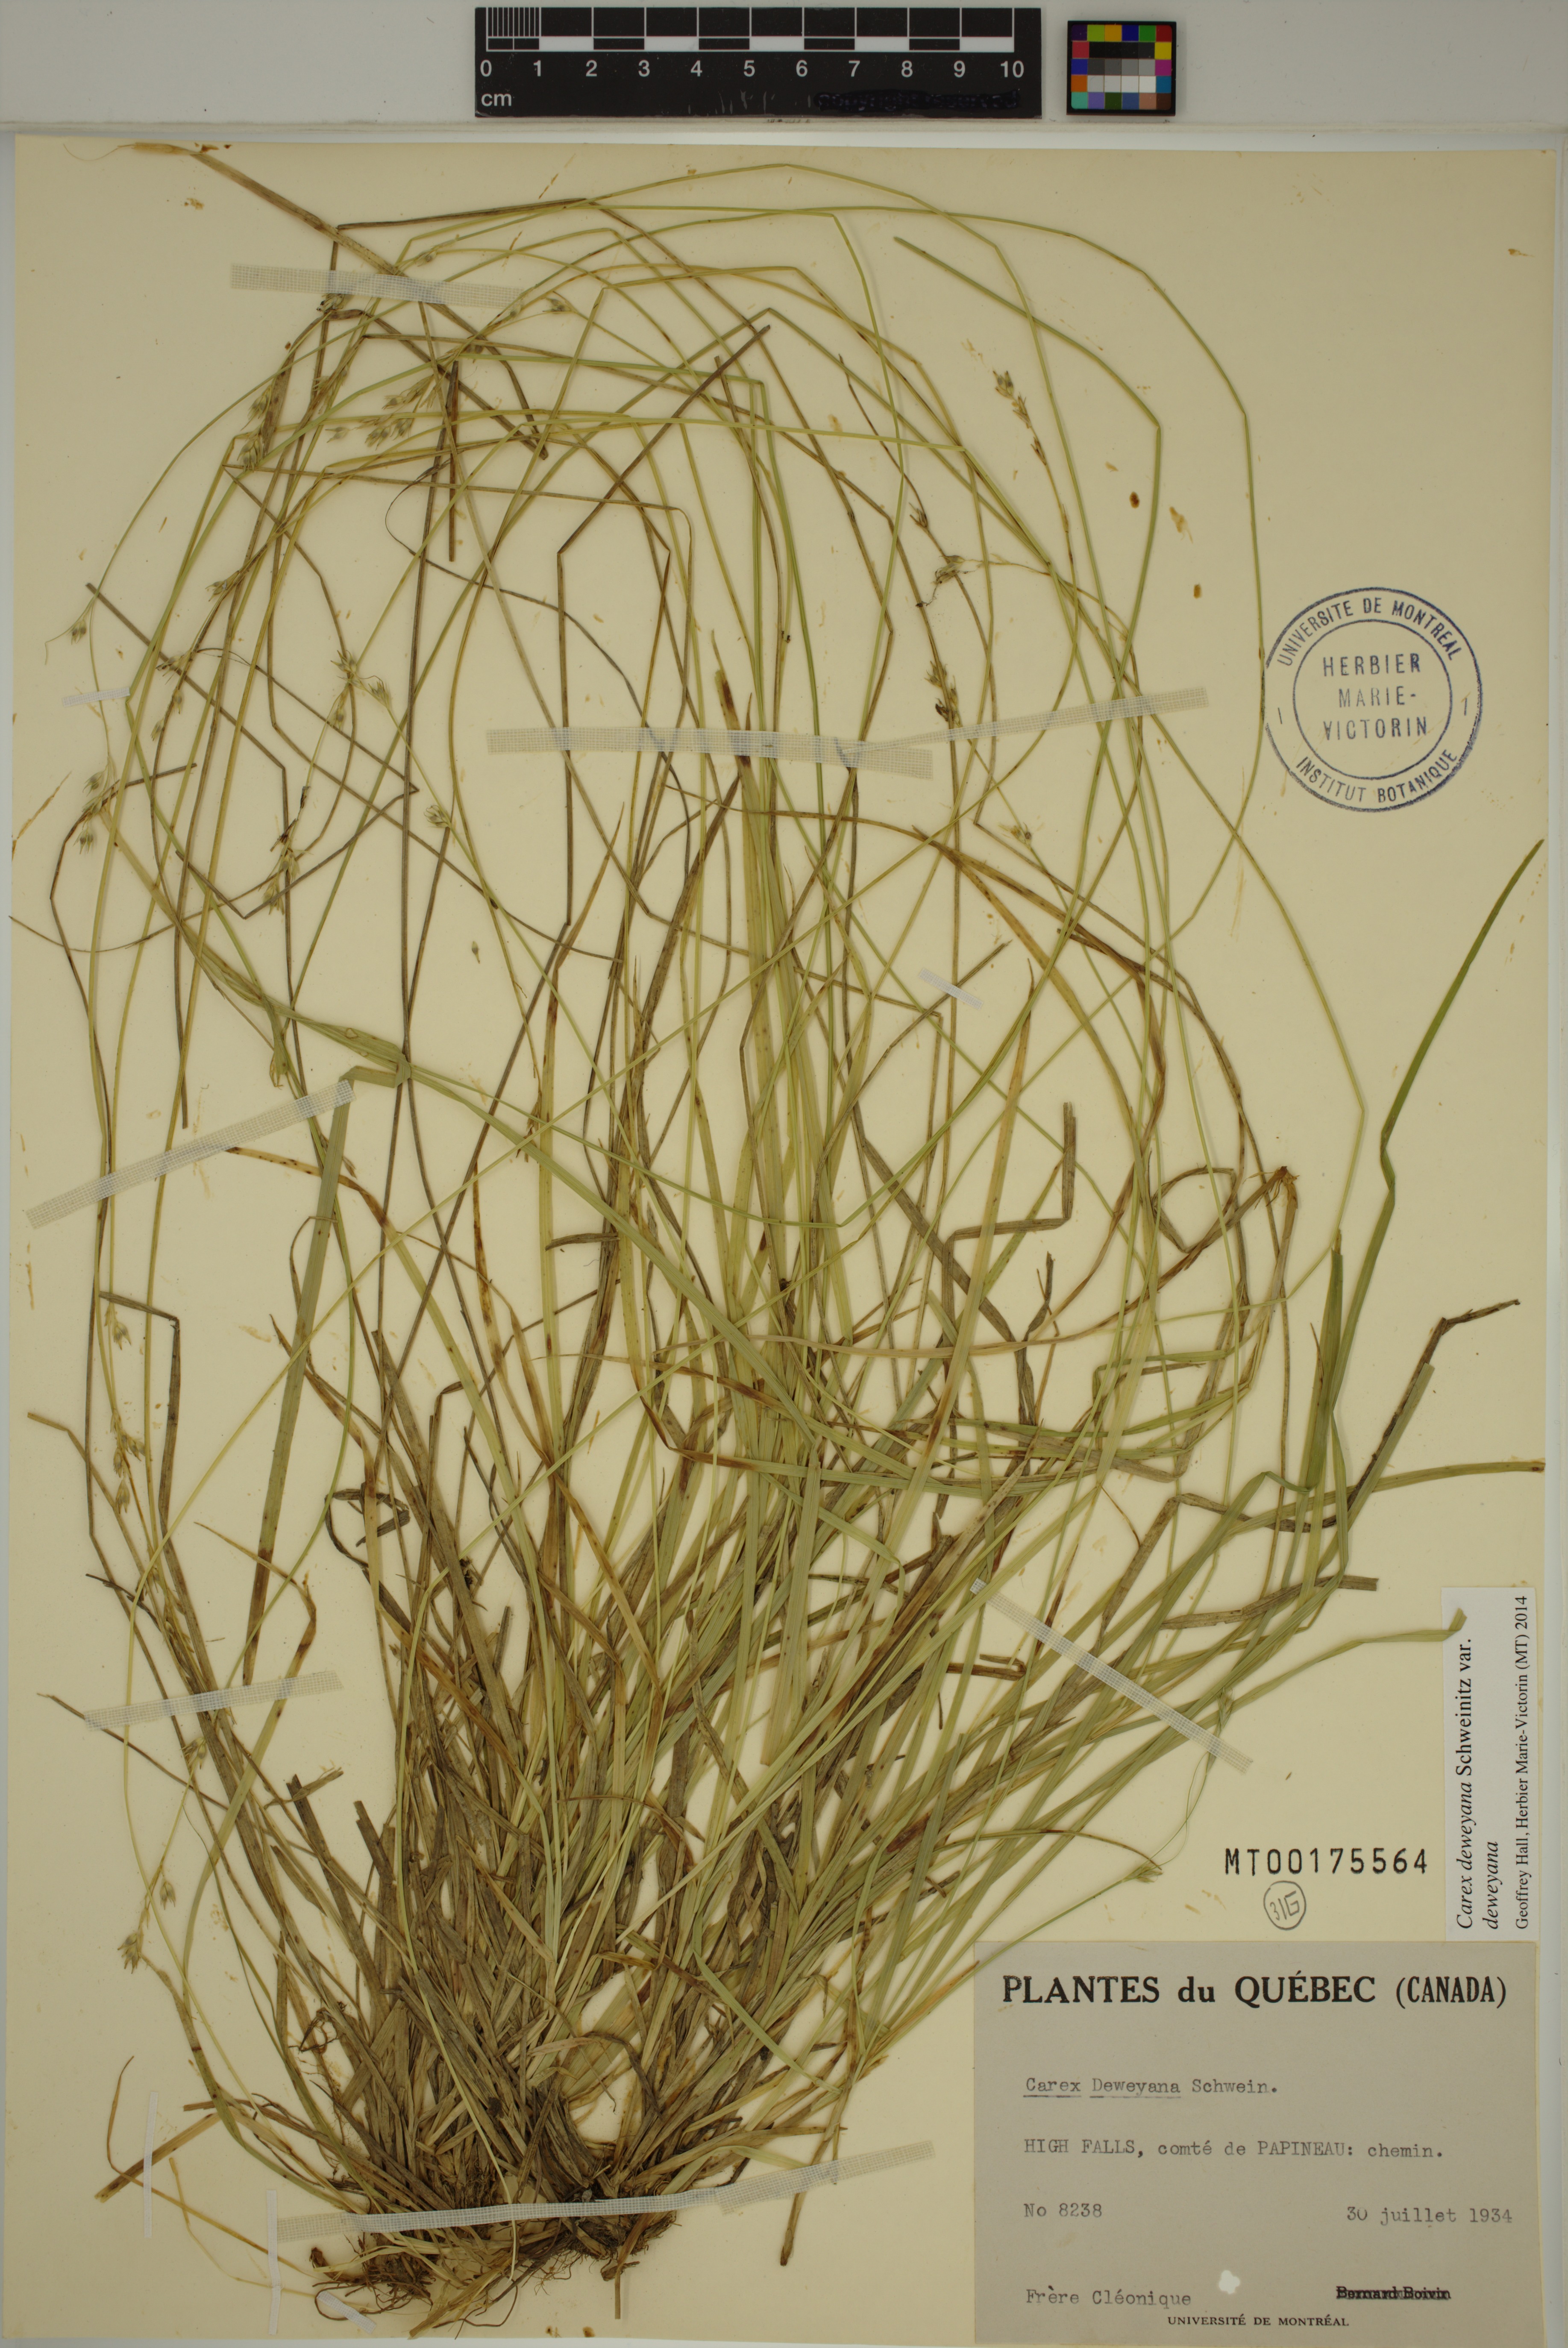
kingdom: Plantae
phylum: Tracheophyta
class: Liliopsida
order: Poales
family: Cyperaceae
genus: Carex
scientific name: Carex deweyana
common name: Dewey's sedge
